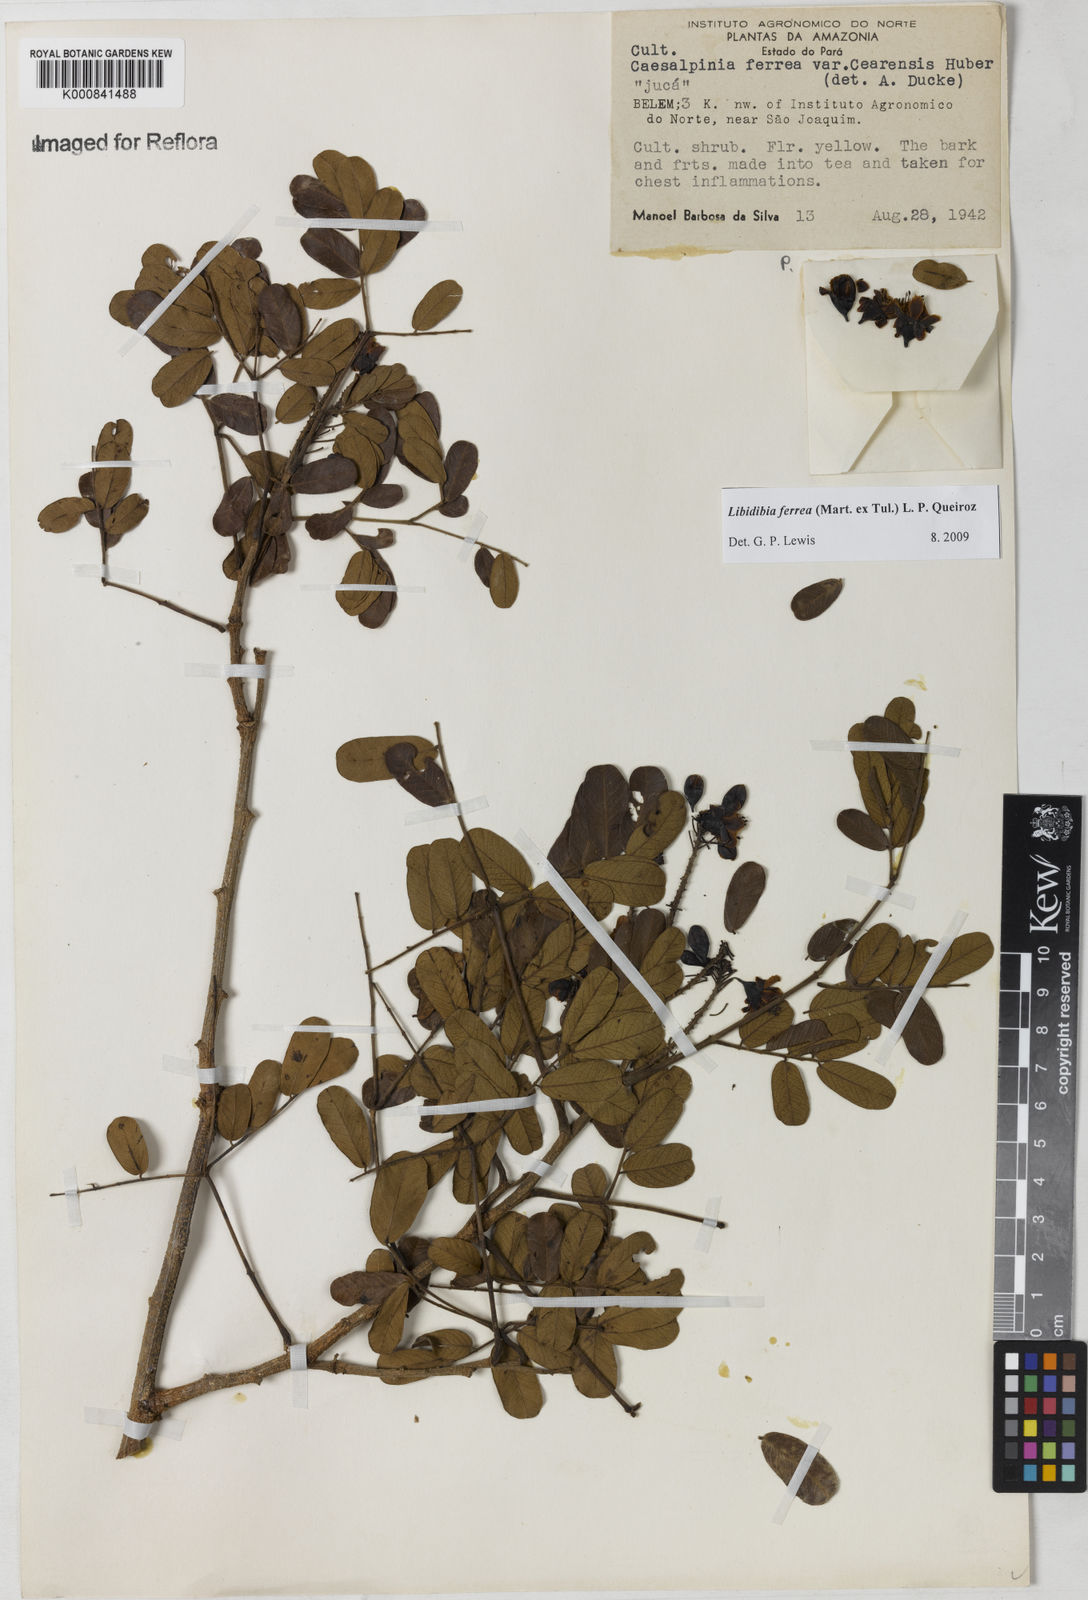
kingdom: Plantae
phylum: Tracheophyta
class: Magnoliopsida
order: Fabales
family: Fabaceae
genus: Libidibia
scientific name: Libidibia ferrea
